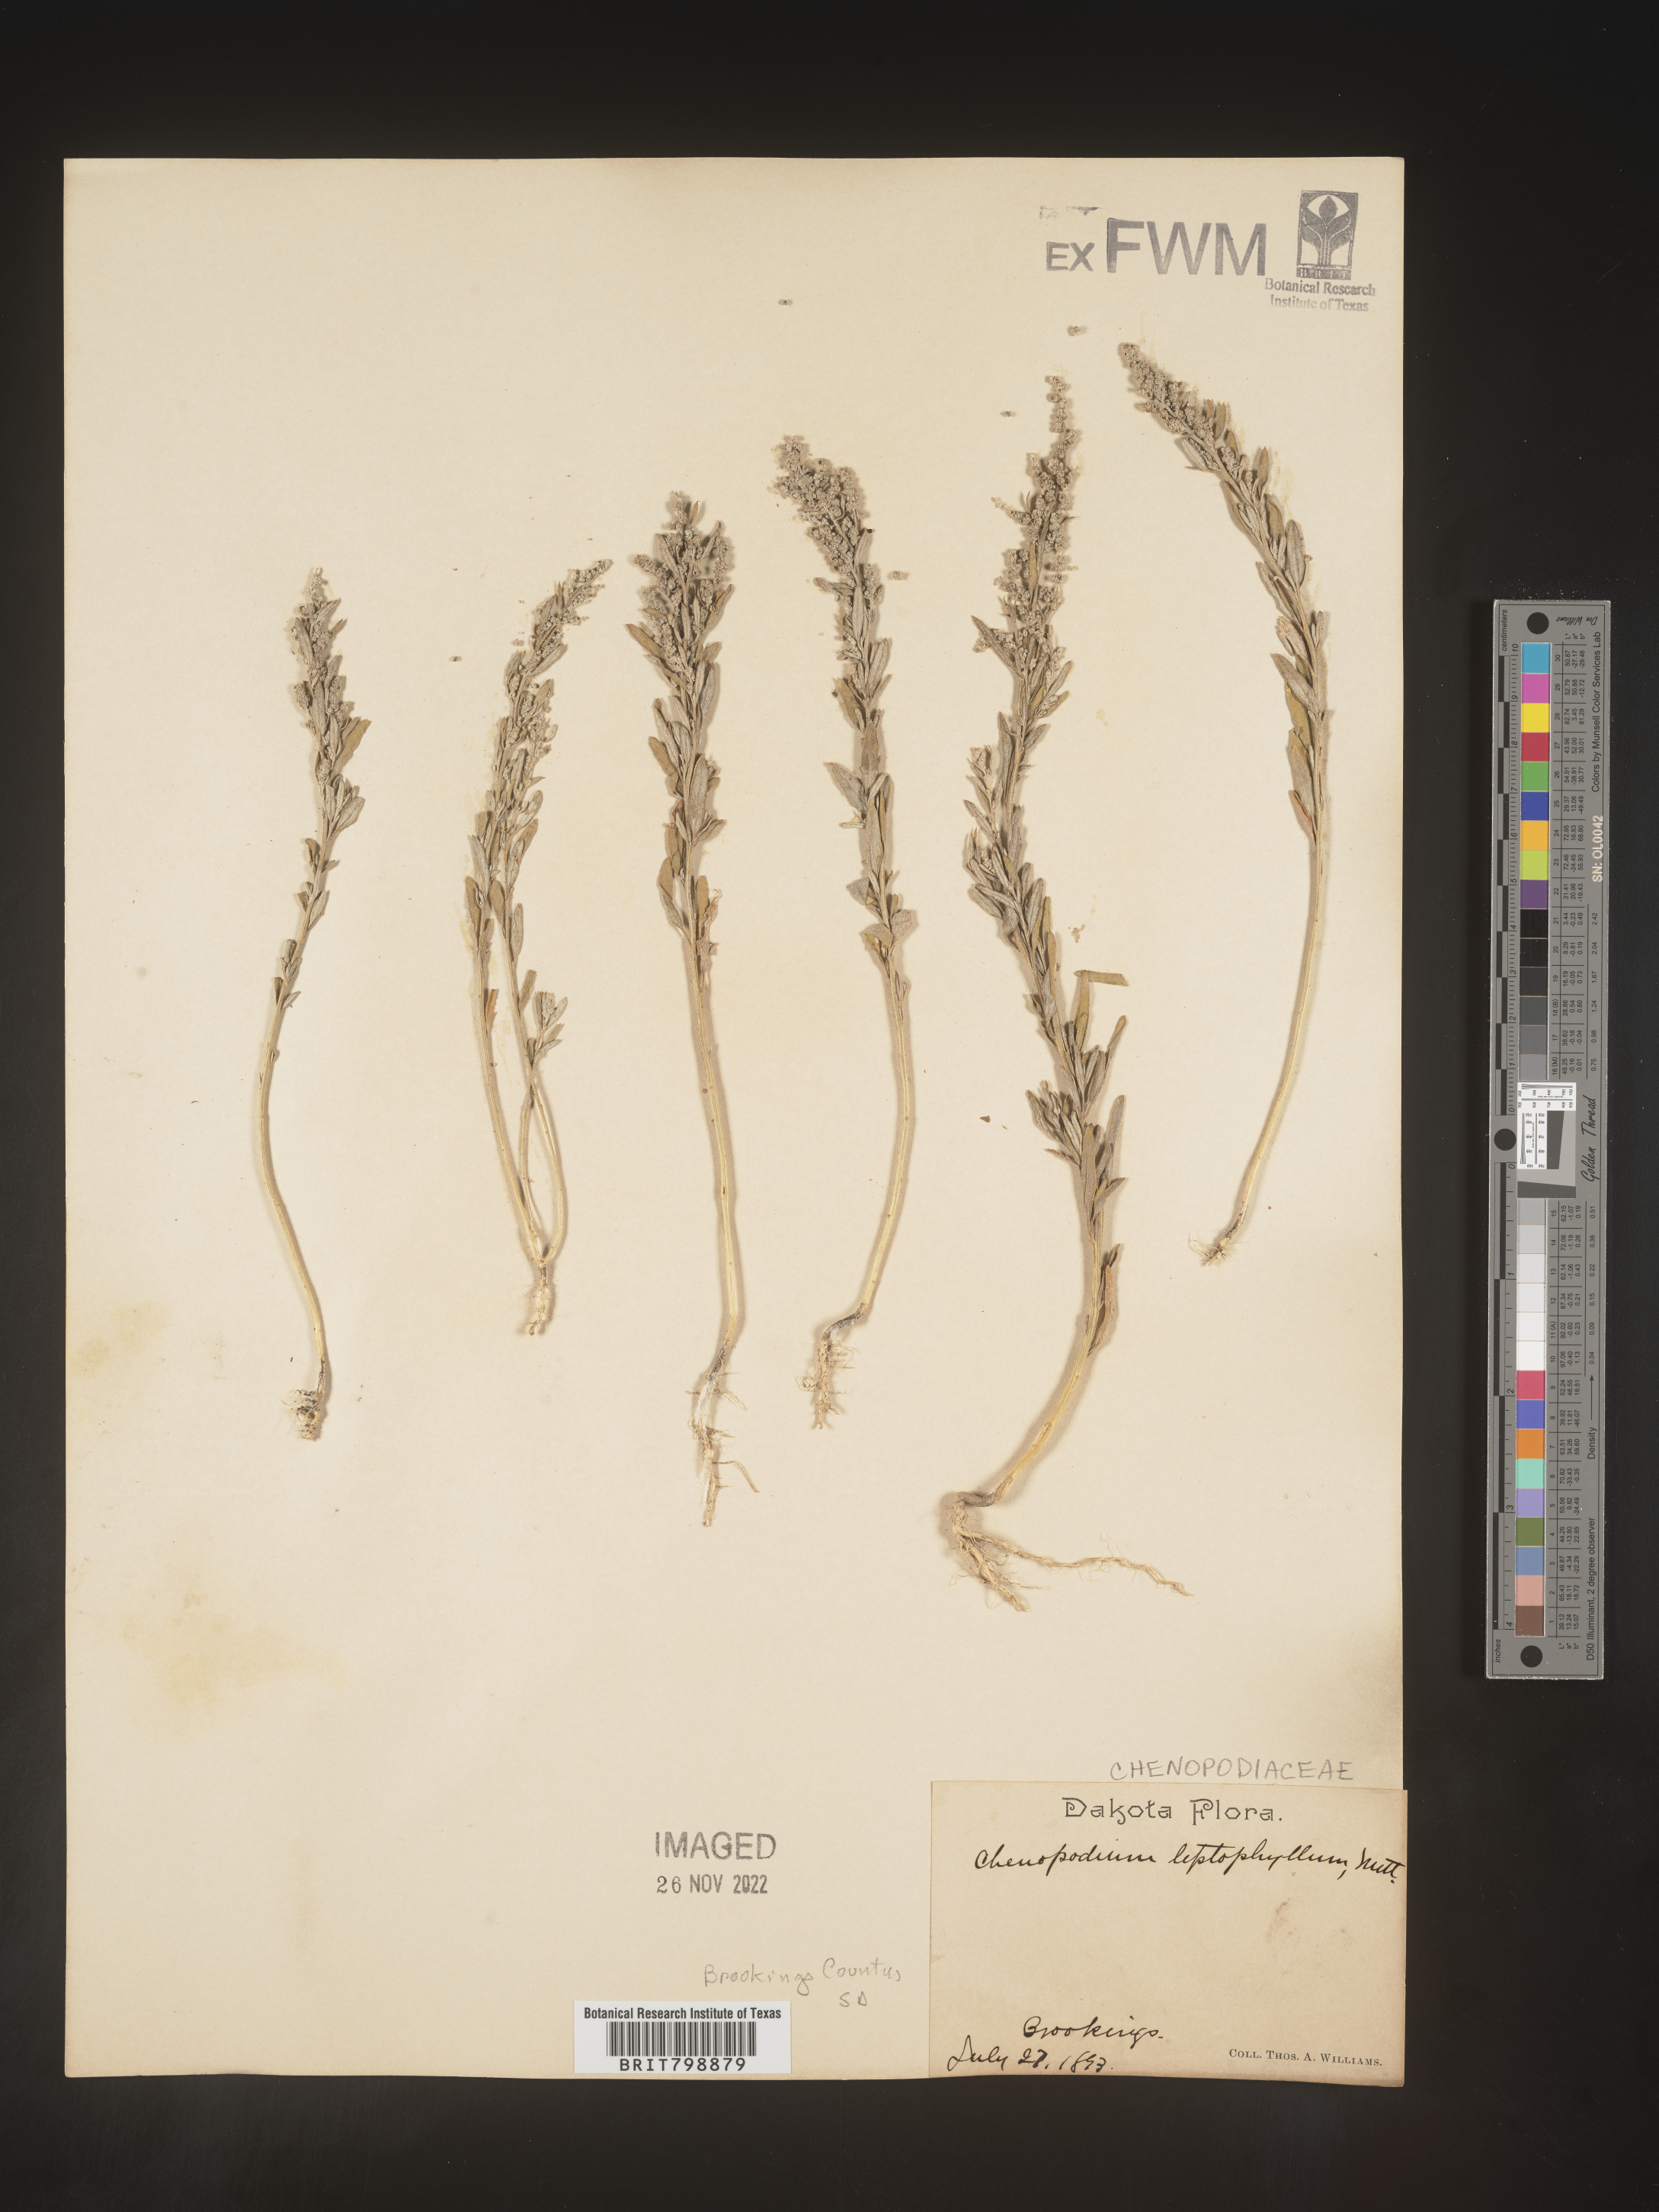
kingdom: Plantae
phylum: Tracheophyta
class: Magnoliopsida
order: Caryophyllales
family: Amaranthaceae
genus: Chenopodium
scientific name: Chenopodium leptophyllum
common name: Narrow-leaf goosefoot
